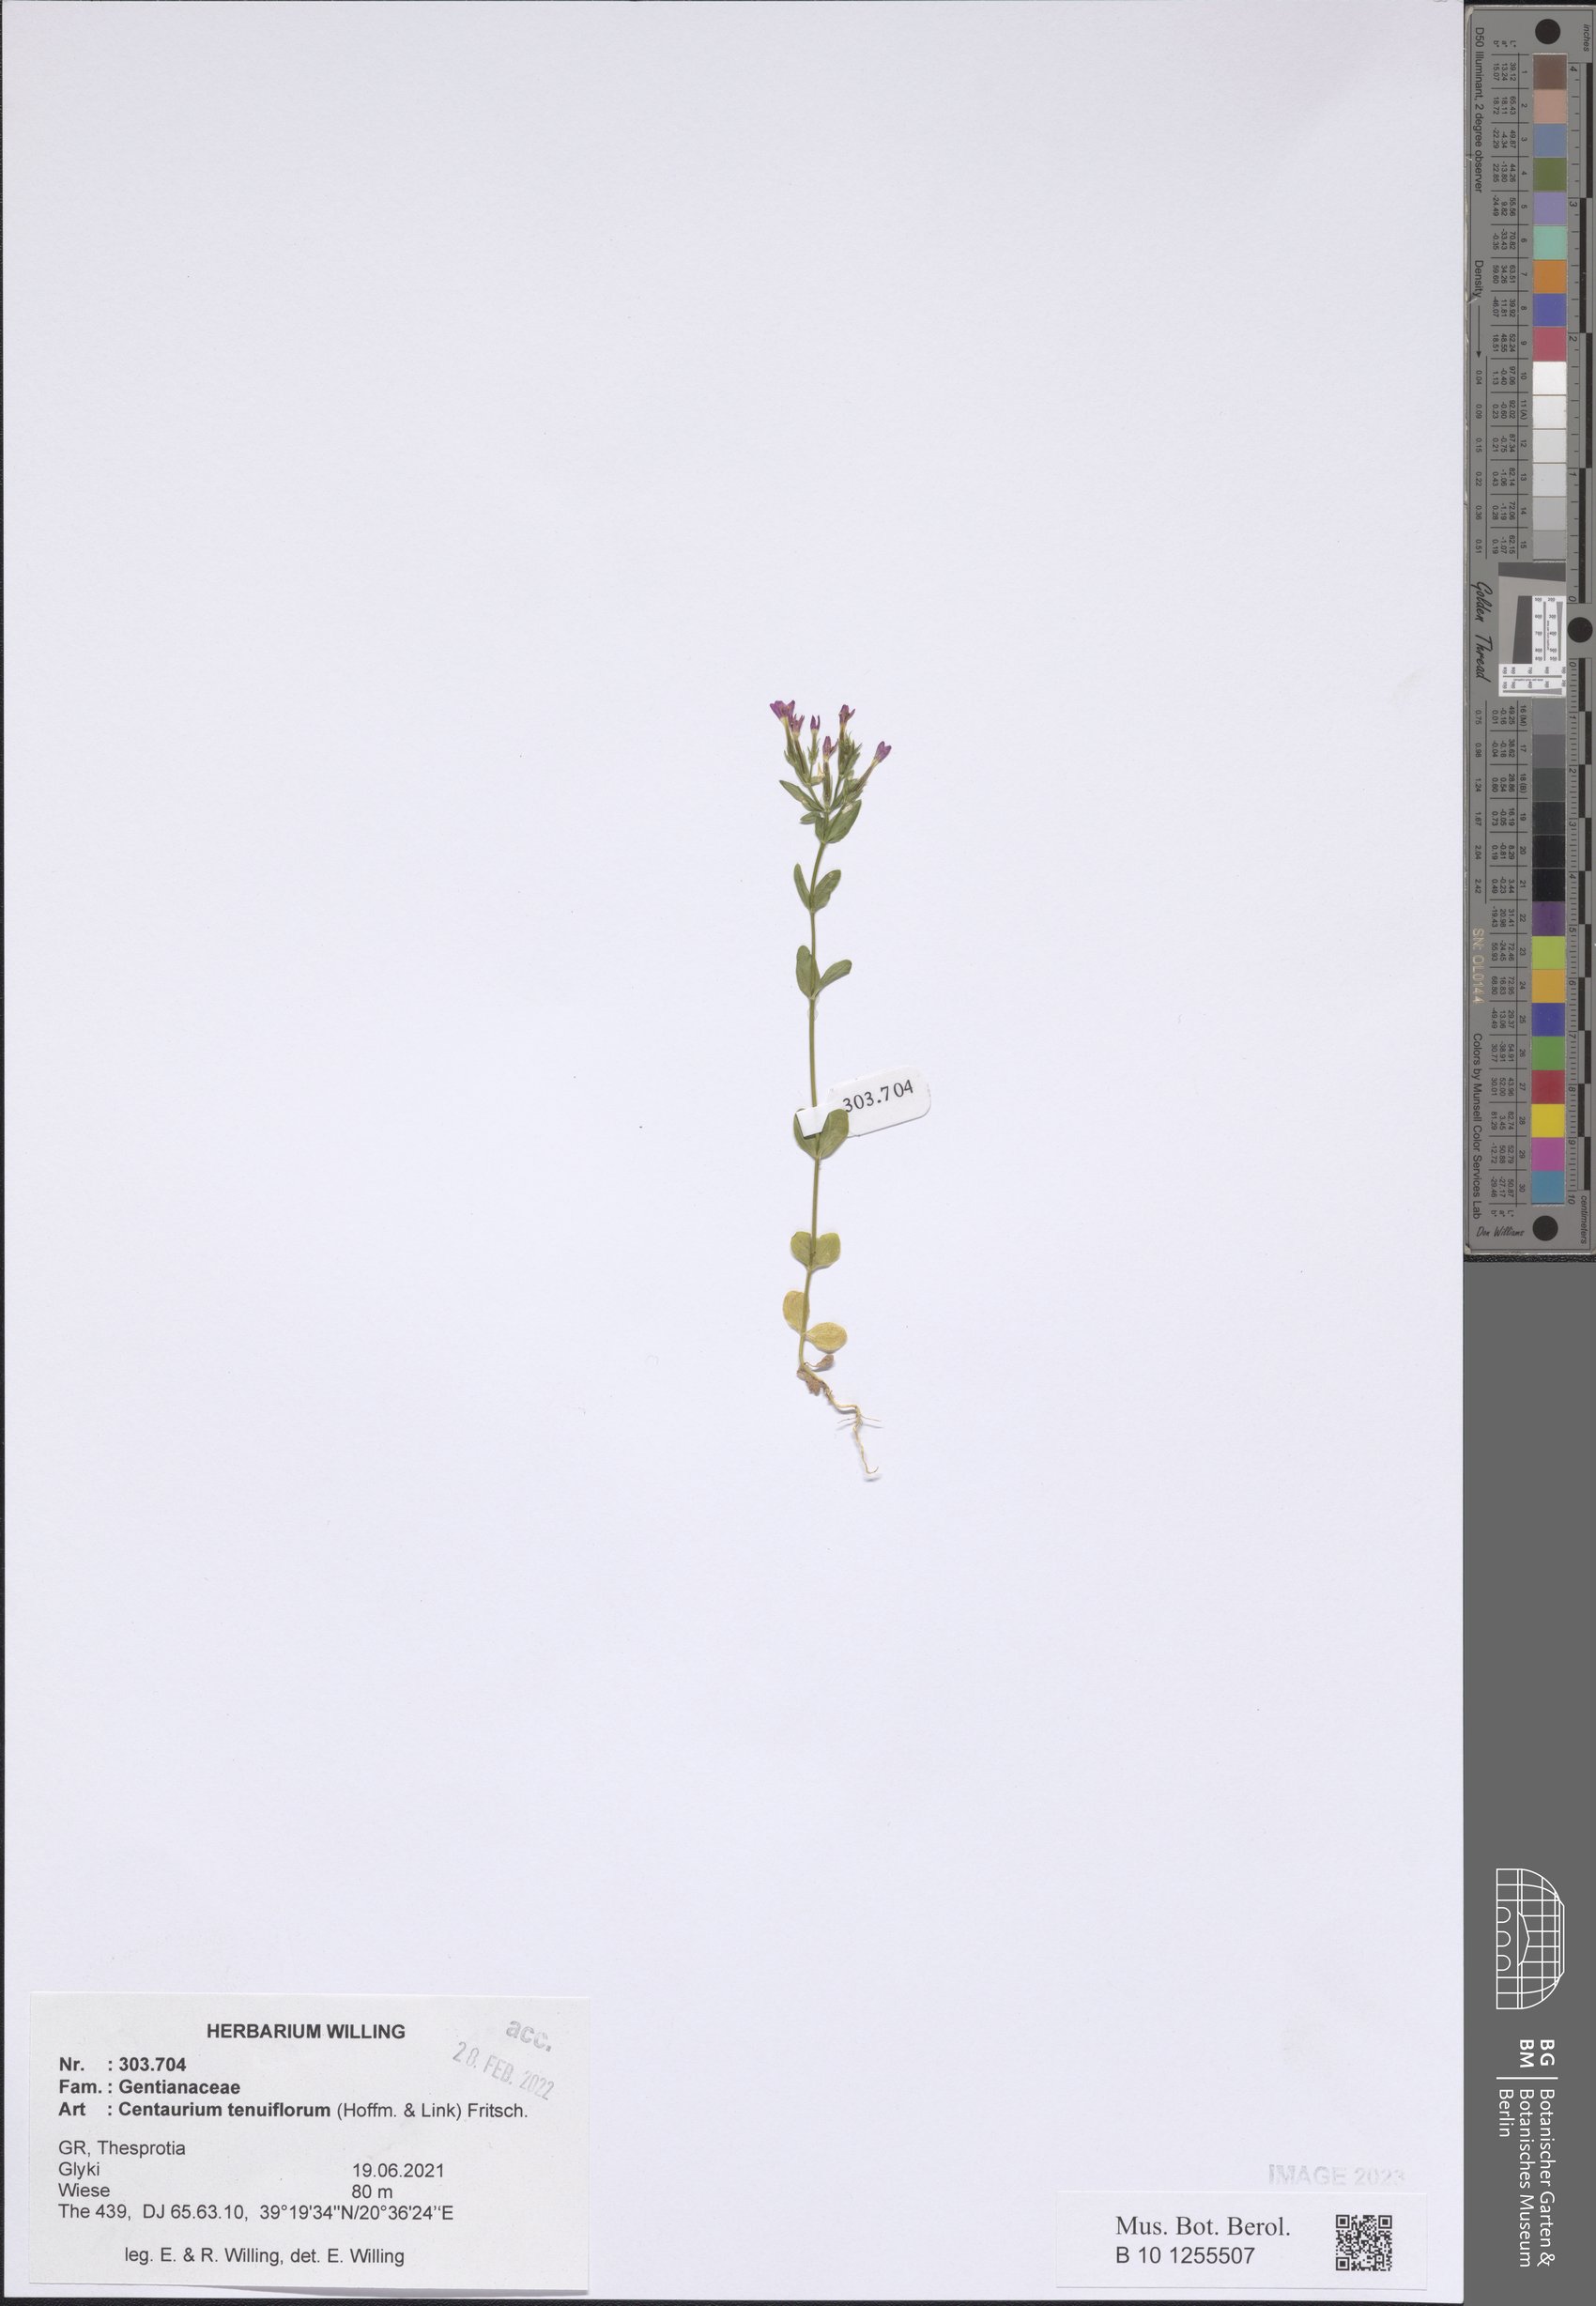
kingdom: Plantae
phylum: Tracheophyta
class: Magnoliopsida
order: Gentianales
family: Gentianaceae
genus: Centaurium
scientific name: Centaurium tenuiflorum
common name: Slender centaury
